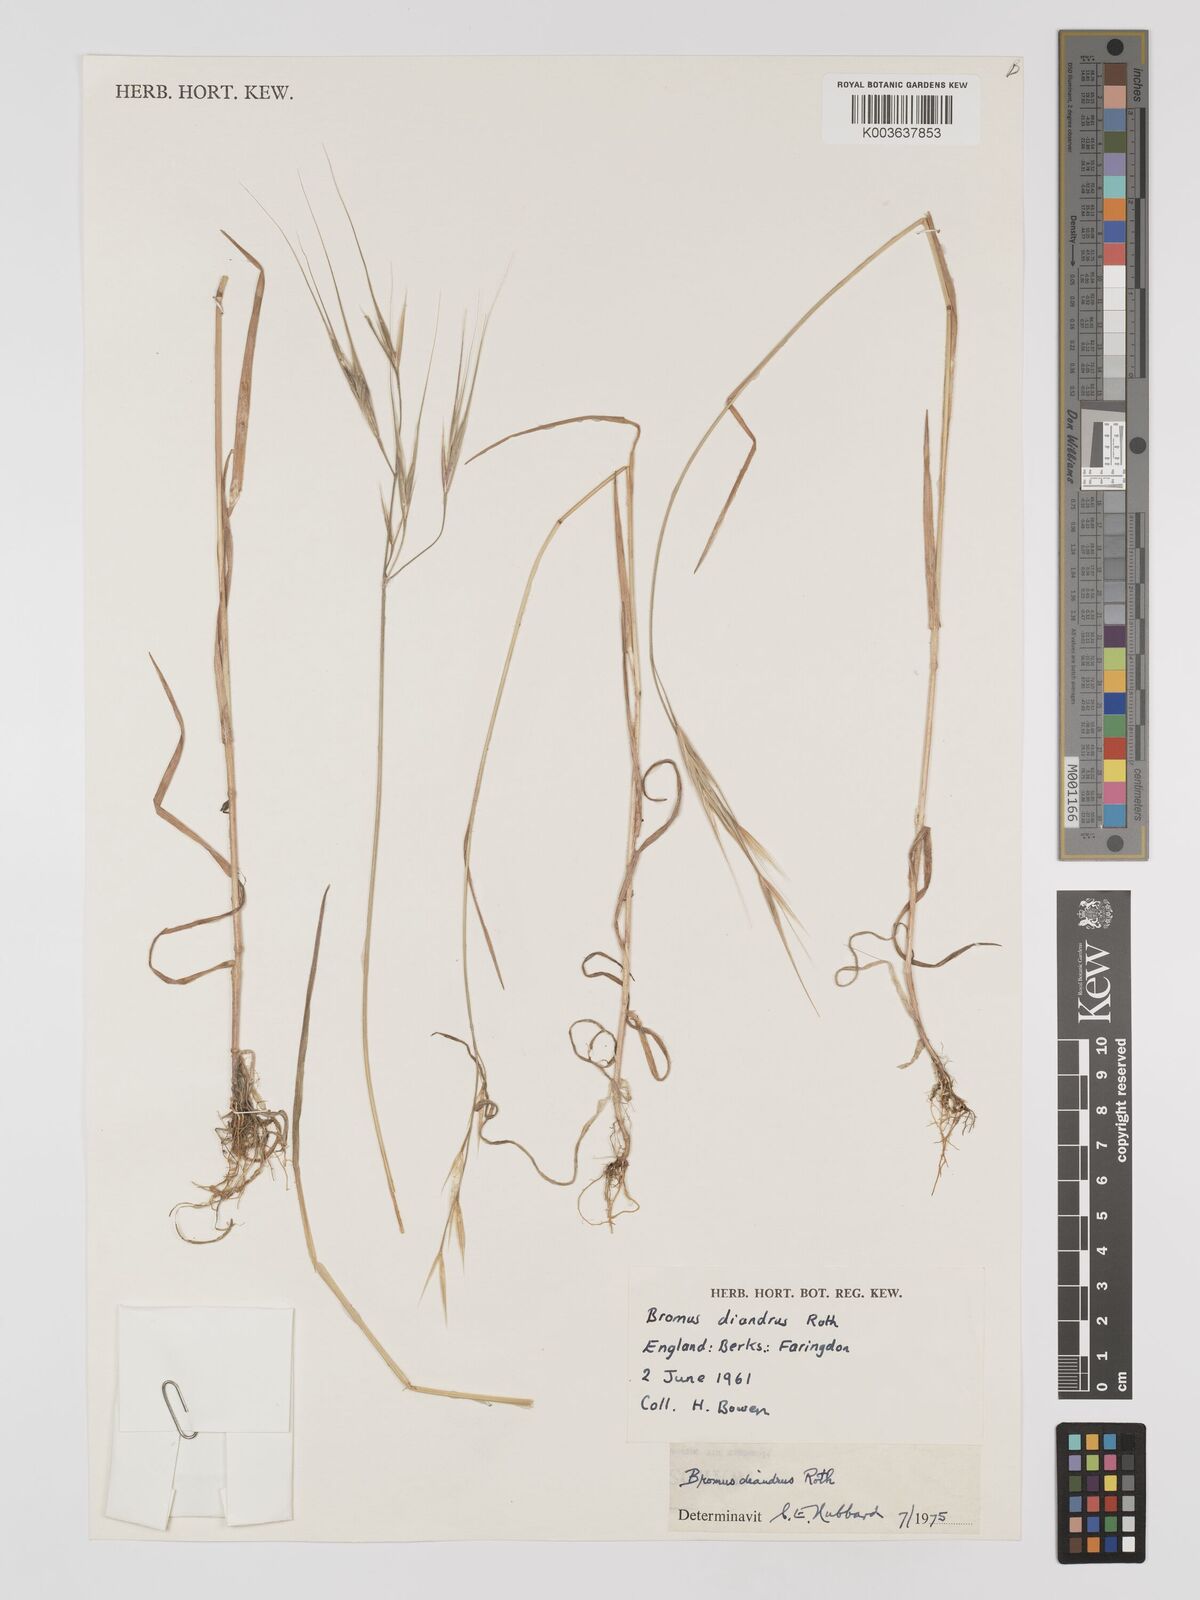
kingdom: Plantae
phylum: Tracheophyta
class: Liliopsida
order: Poales
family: Poaceae
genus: Bromus
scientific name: Bromus
